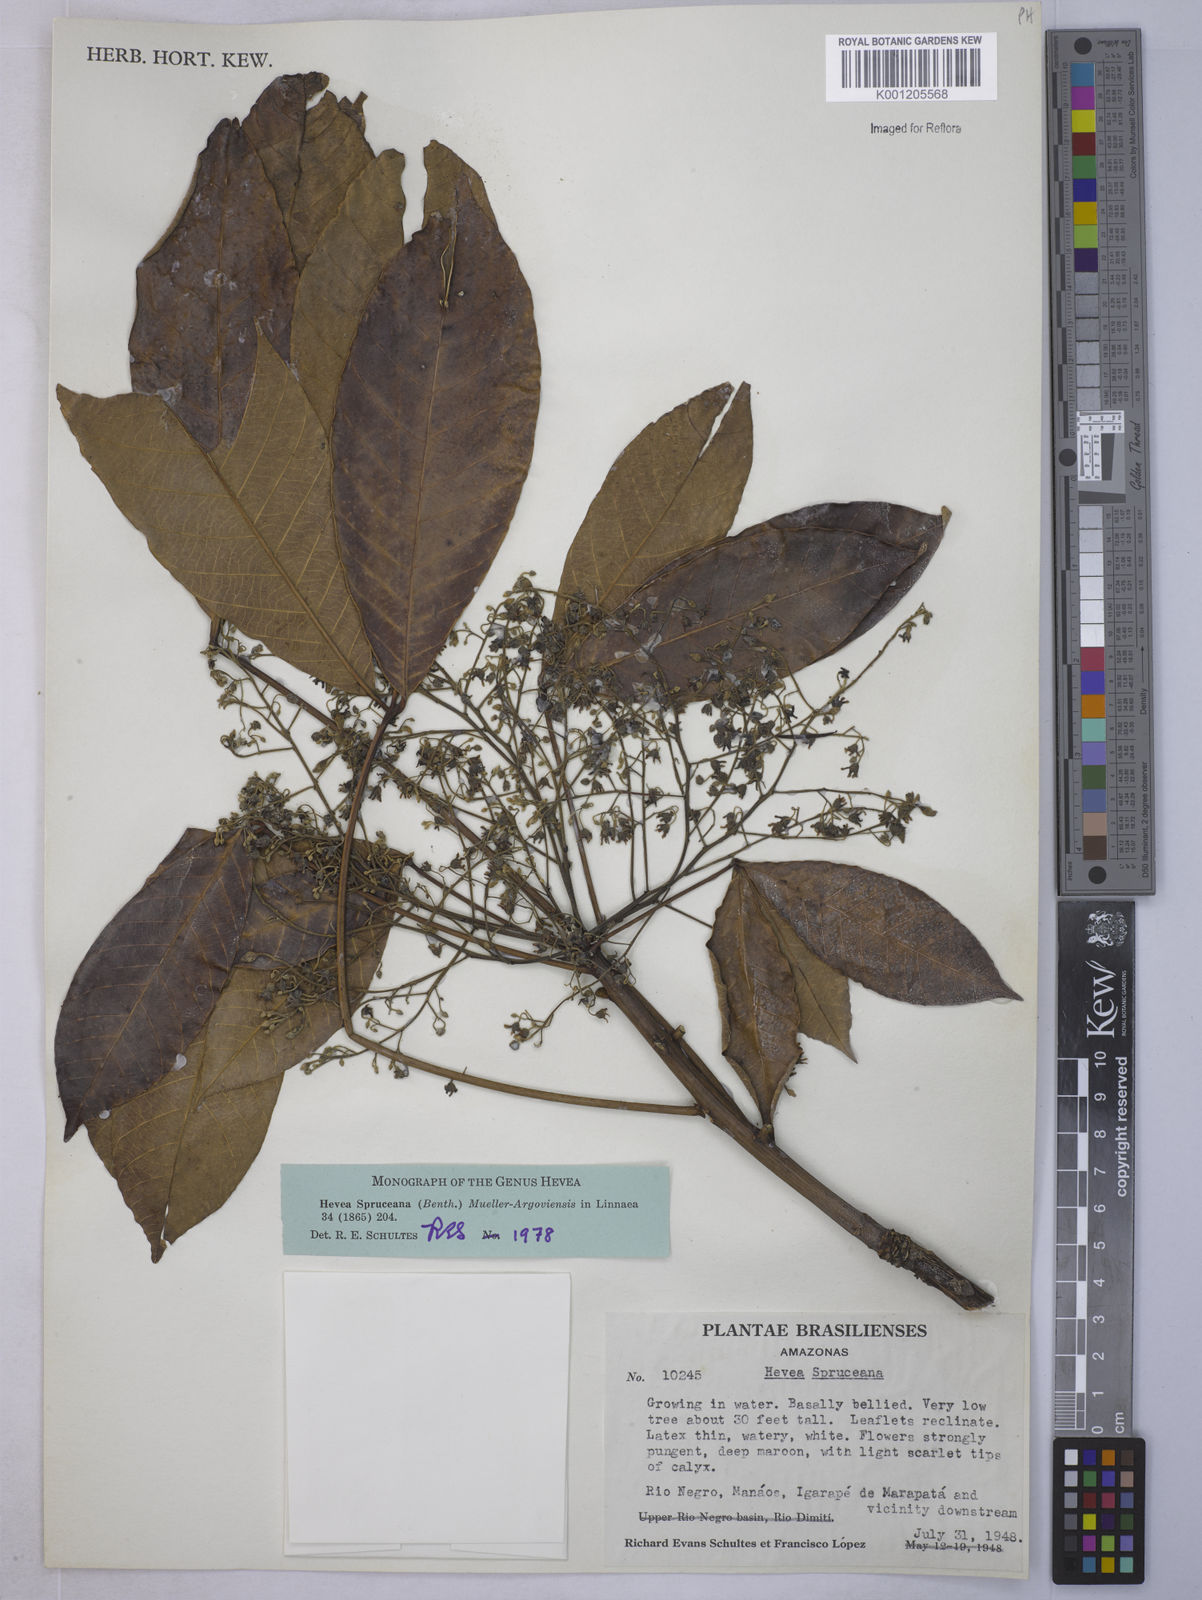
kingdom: Plantae
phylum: Tracheophyta
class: Magnoliopsida
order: Malpighiales
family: Euphorbiaceae
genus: Hevea
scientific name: Hevea
